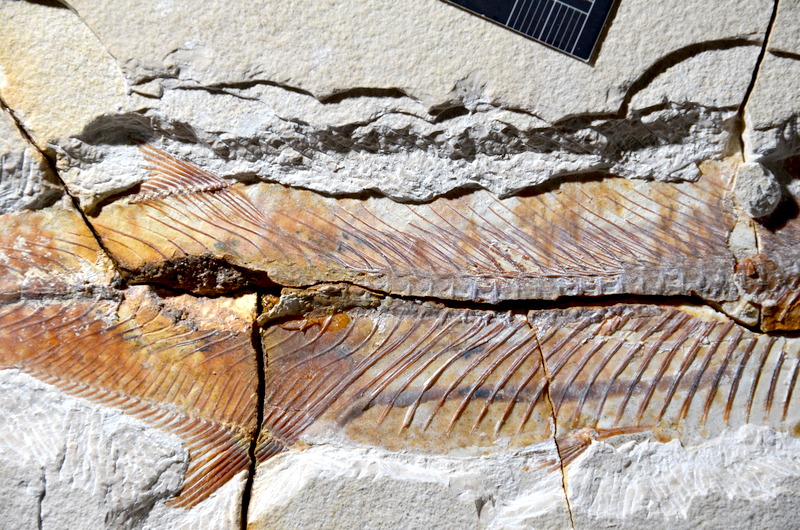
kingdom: Animalia
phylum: Chordata
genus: Thrissops
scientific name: Thrissops formosus
